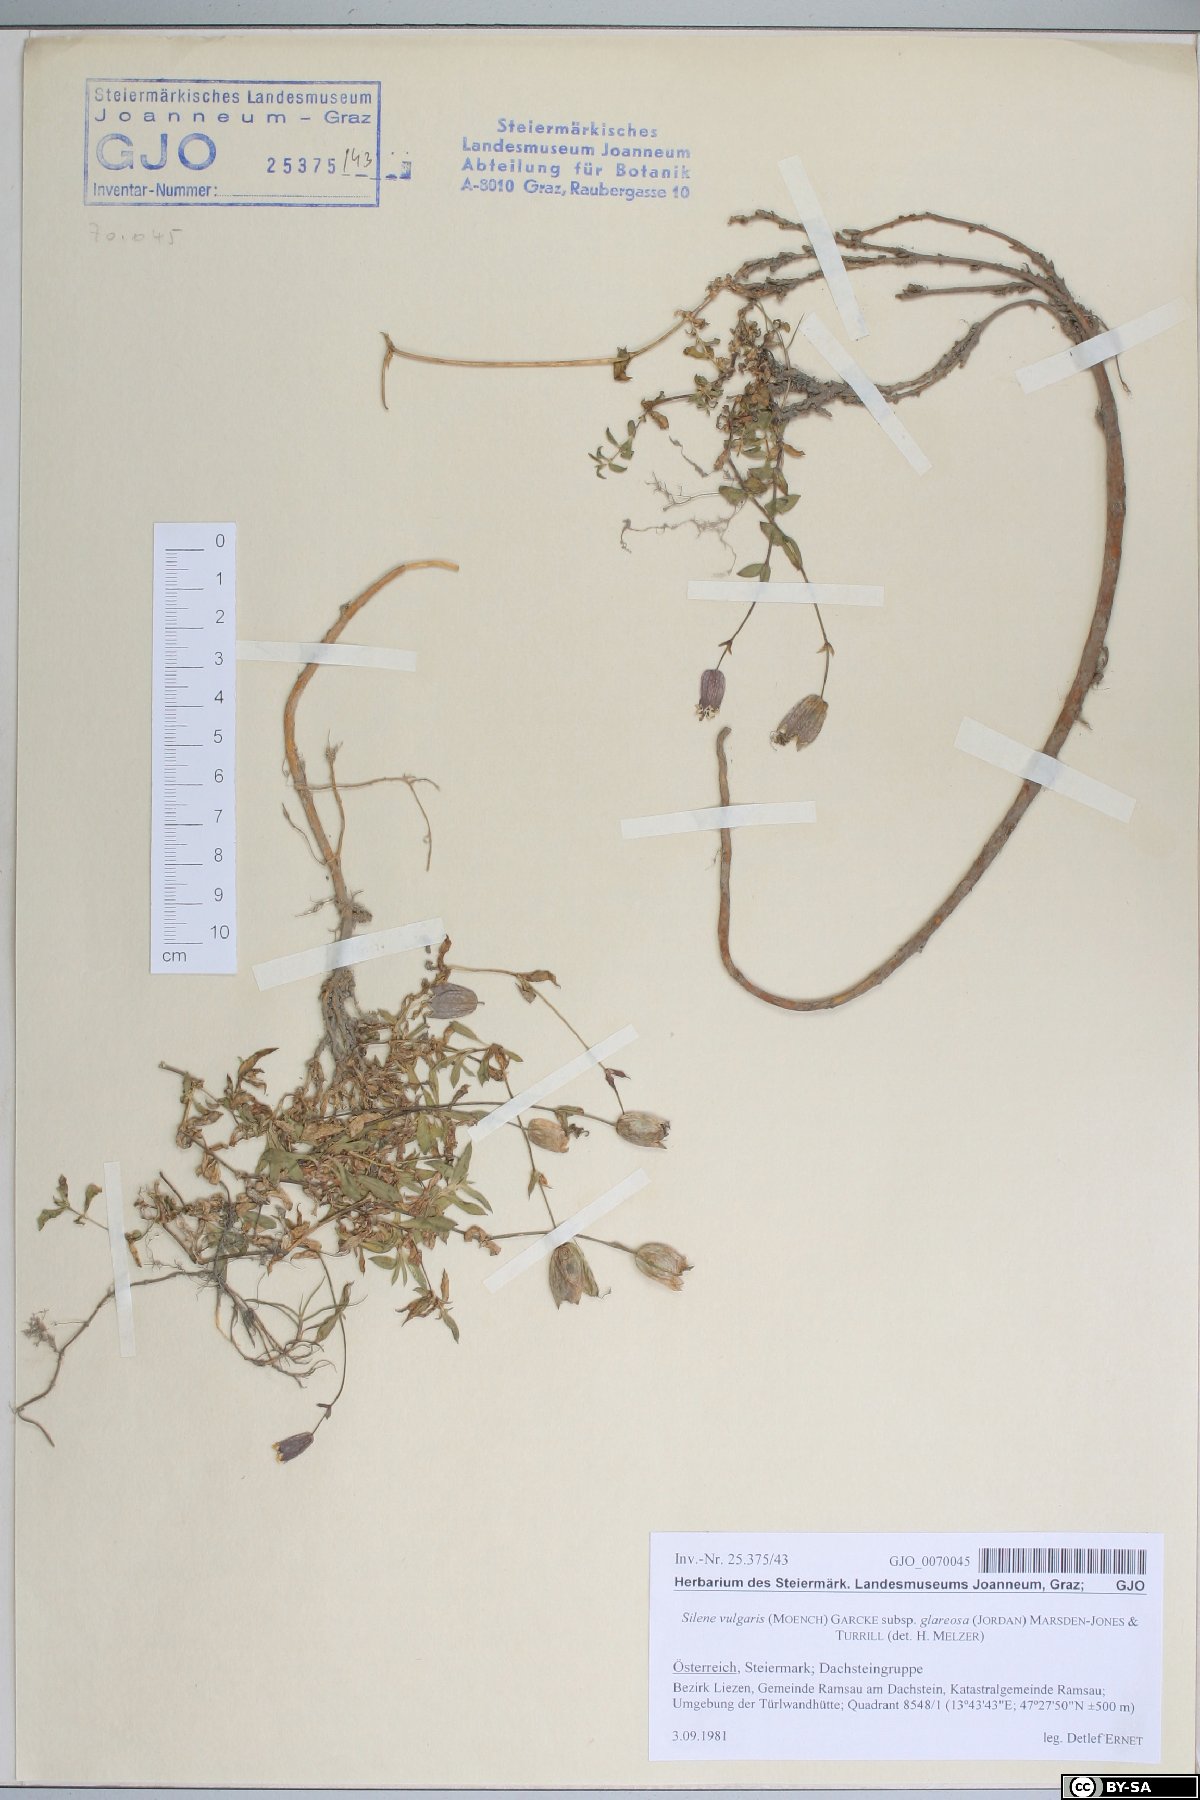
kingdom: Plantae
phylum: Tracheophyta
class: Magnoliopsida
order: Caryophyllales
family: Caryophyllaceae
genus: Silene
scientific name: Silene glareosa
